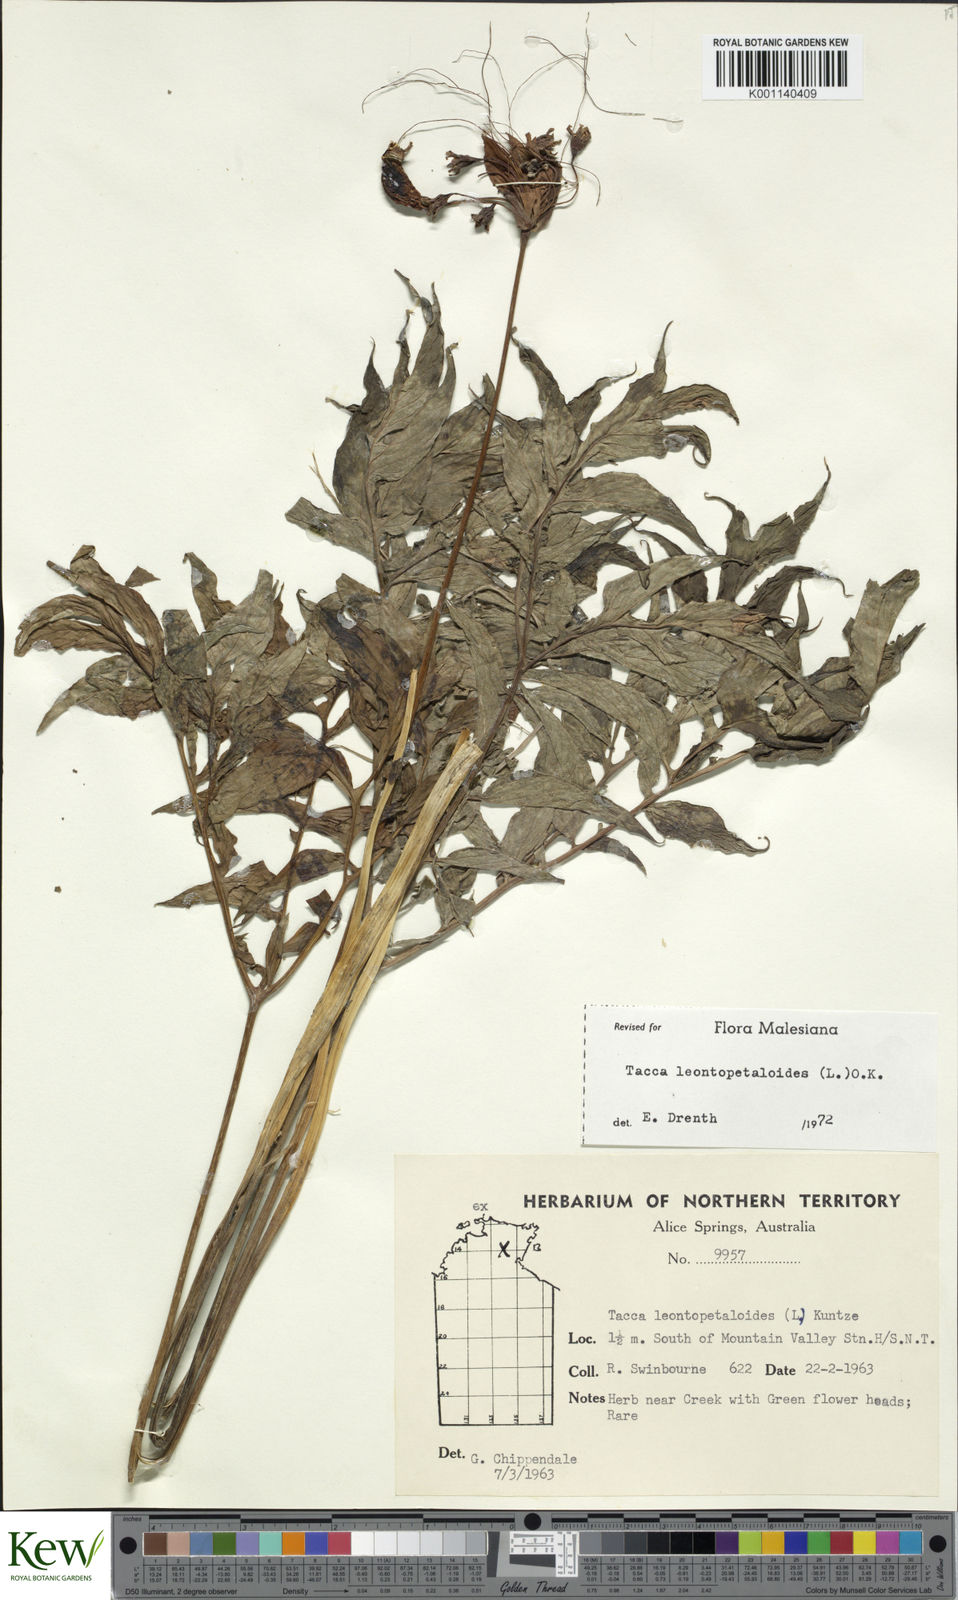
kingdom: Plantae
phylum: Tracheophyta
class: Liliopsida
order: Dioscoreales
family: Dioscoreaceae
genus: Tacca
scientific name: Tacca leontopetaloides
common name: Arrowroot
